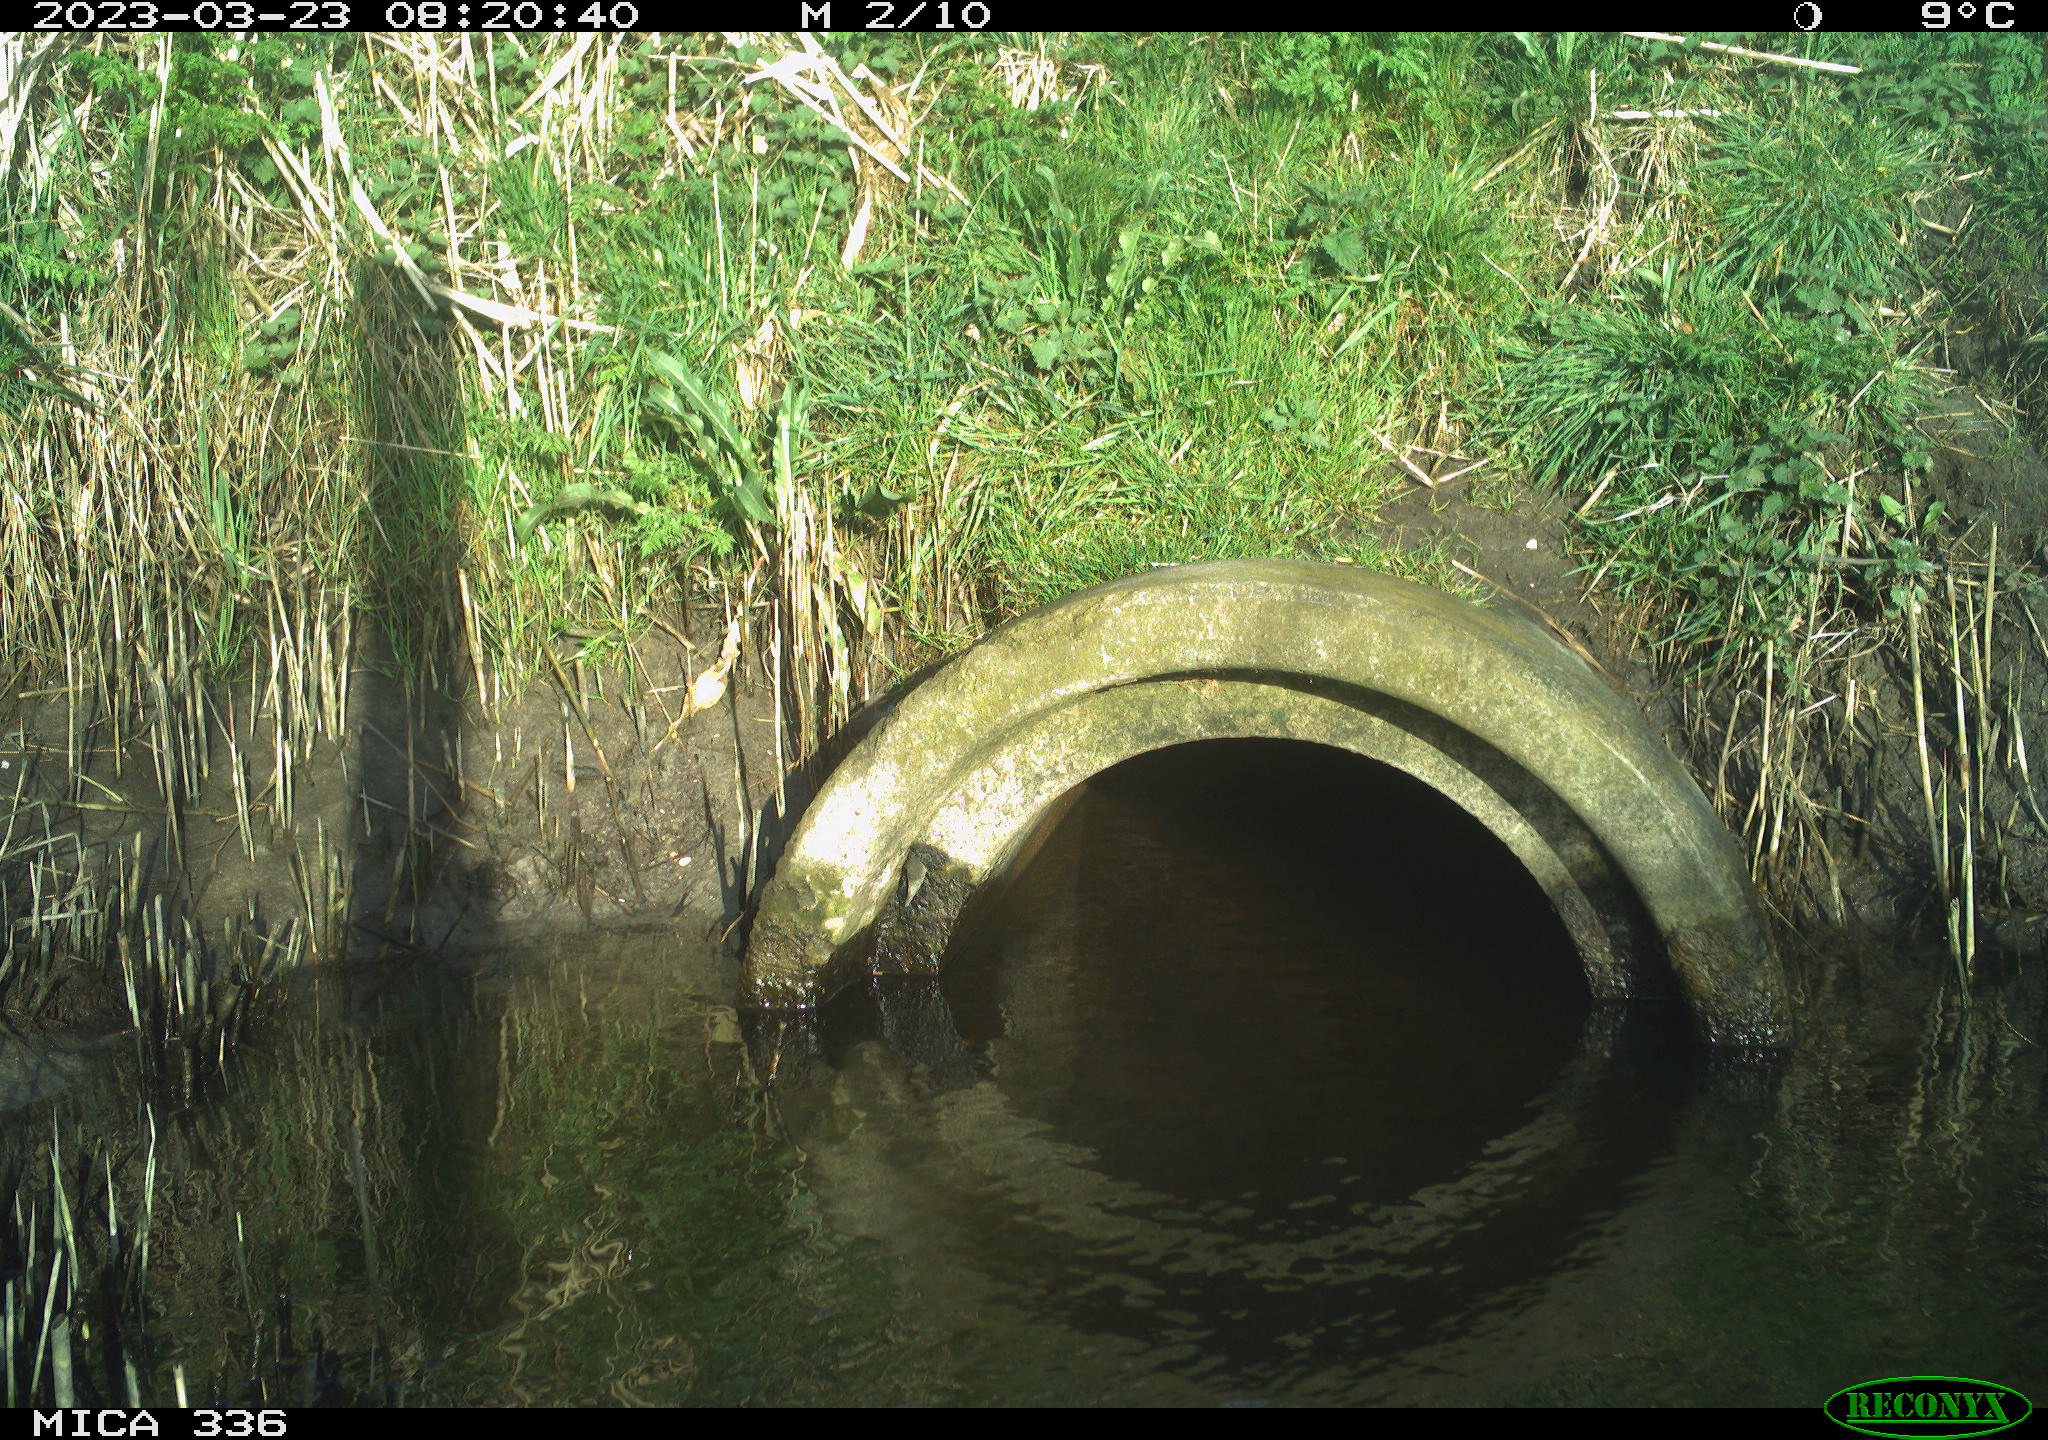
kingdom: Animalia
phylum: Chordata
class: Aves
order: Passeriformes
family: Muscicapidae
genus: Luscinia
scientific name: Luscinia svecica
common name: Bluethroat
